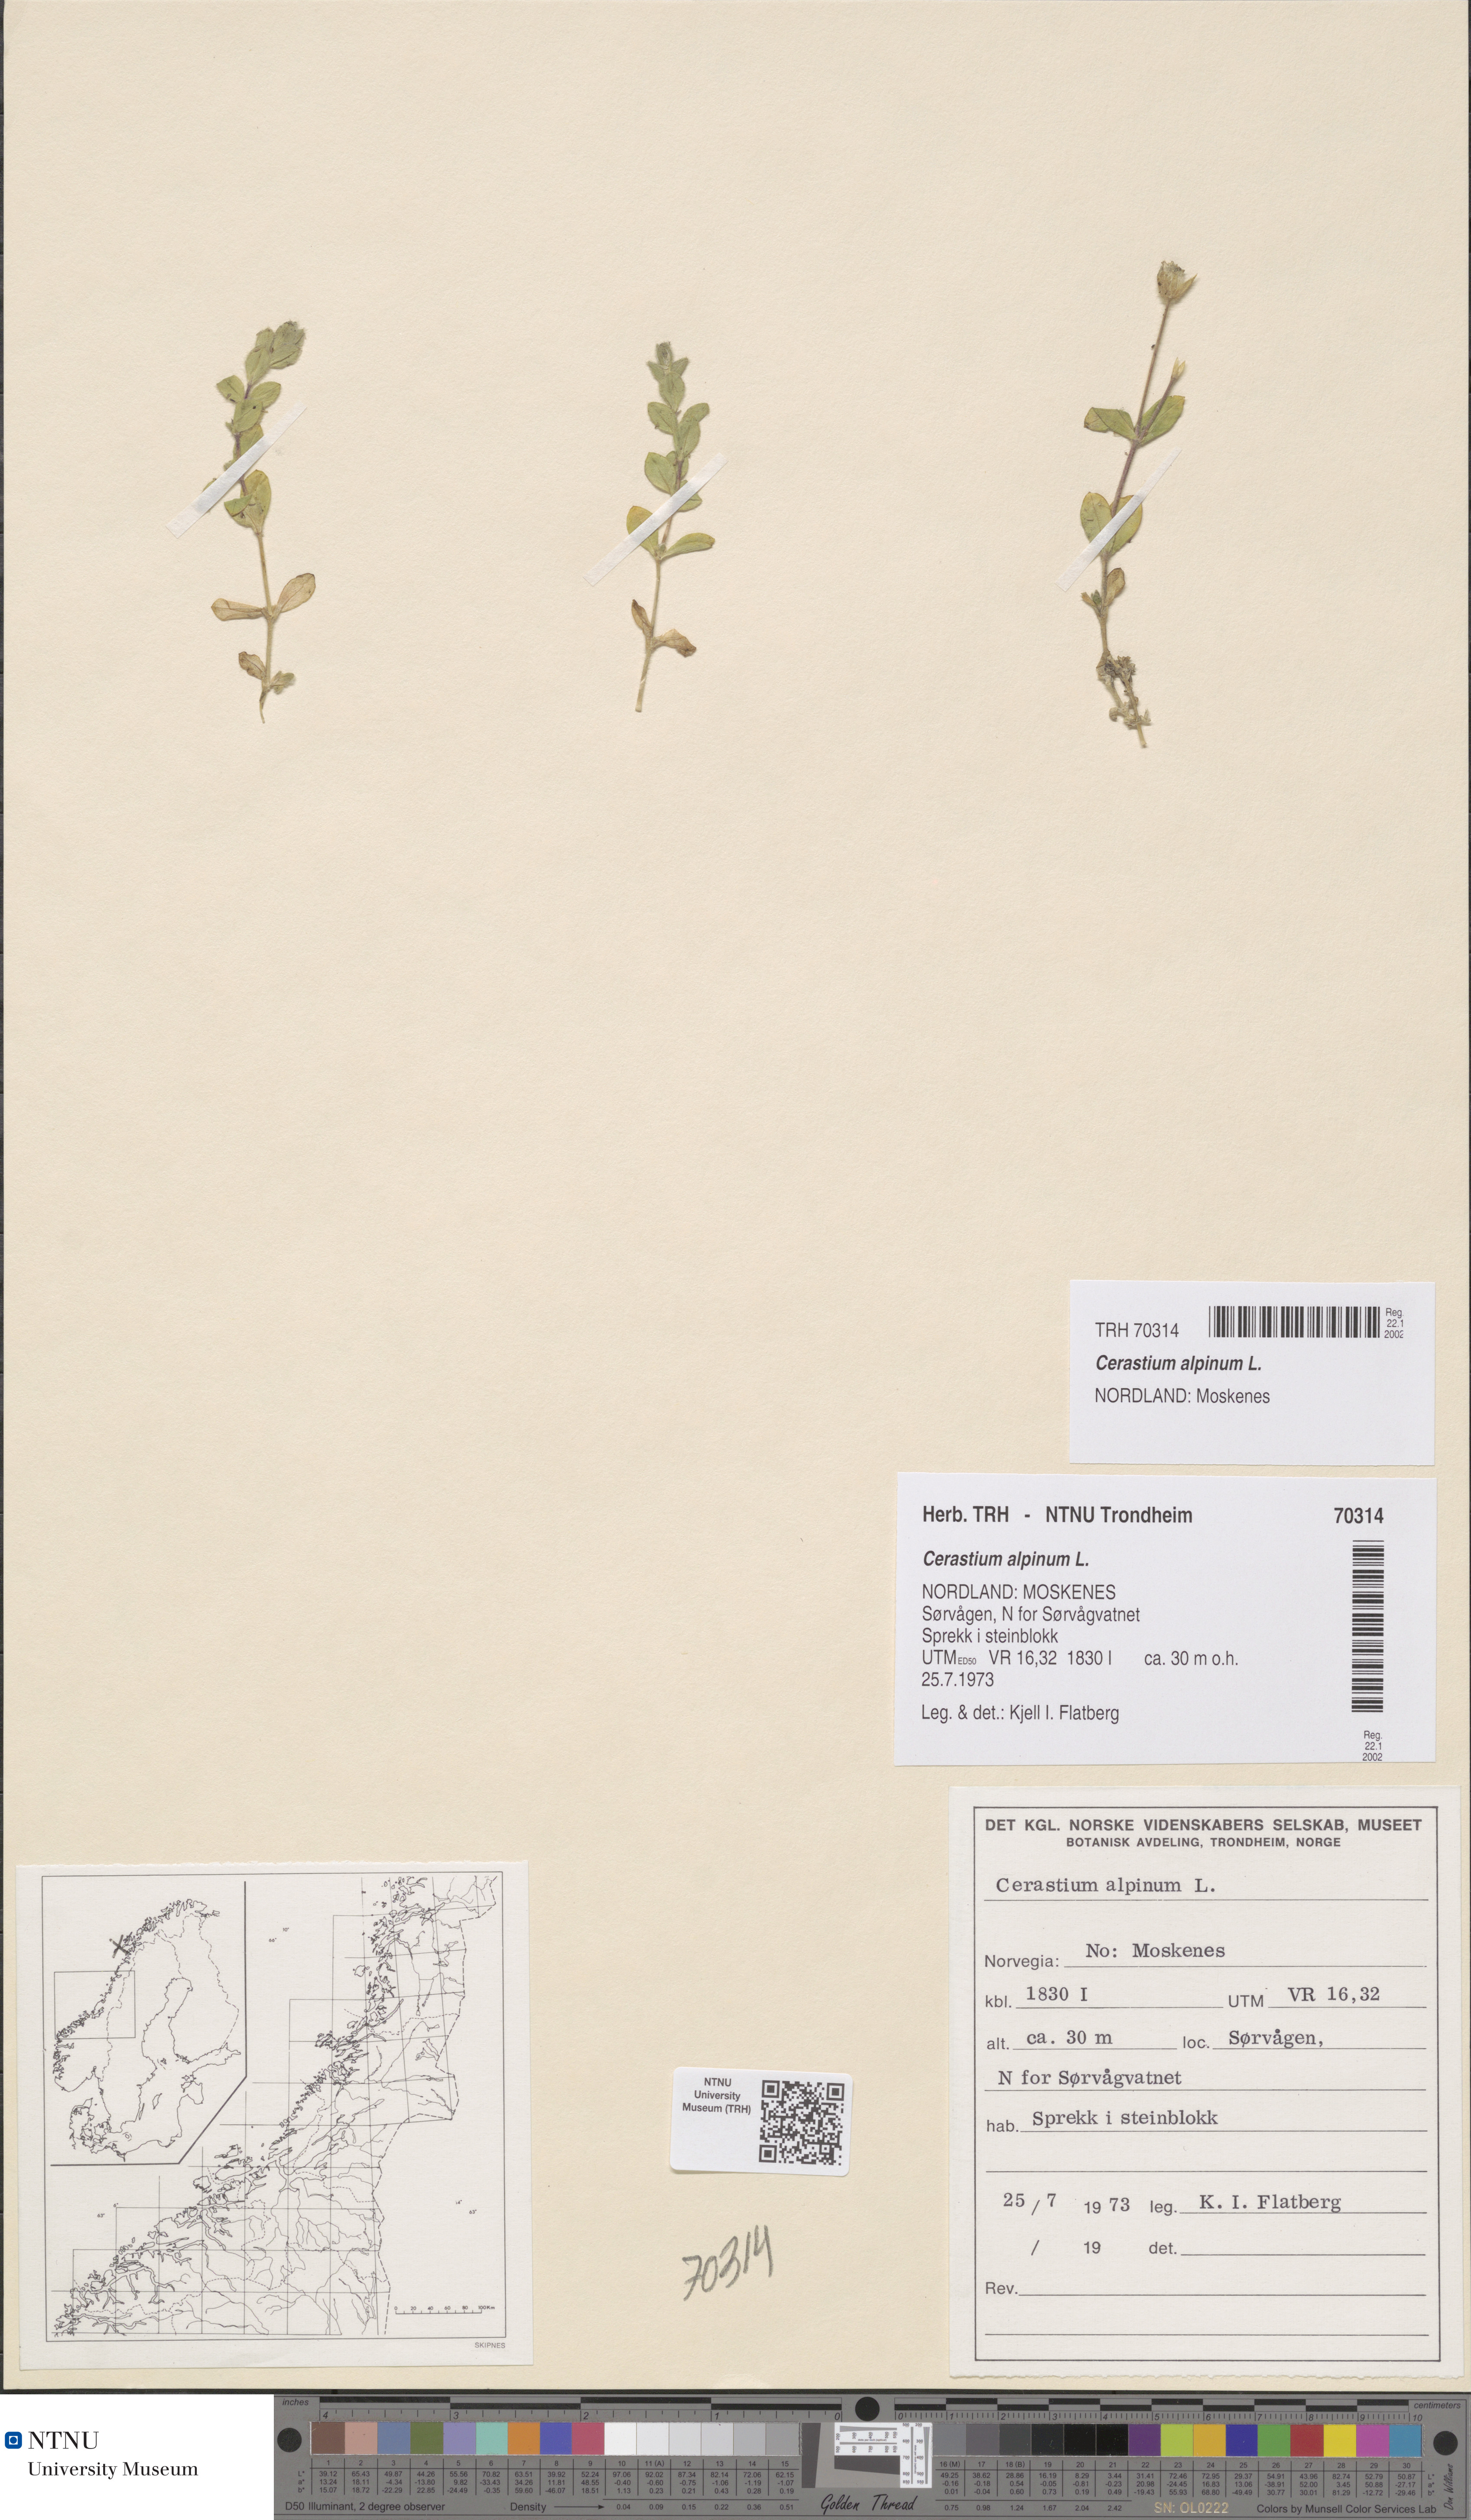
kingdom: Plantae
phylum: Tracheophyta
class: Magnoliopsida
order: Caryophyllales
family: Caryophyllaceae
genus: Cerastium
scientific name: Cerastium alpinum
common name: Alpine mouse-ear
